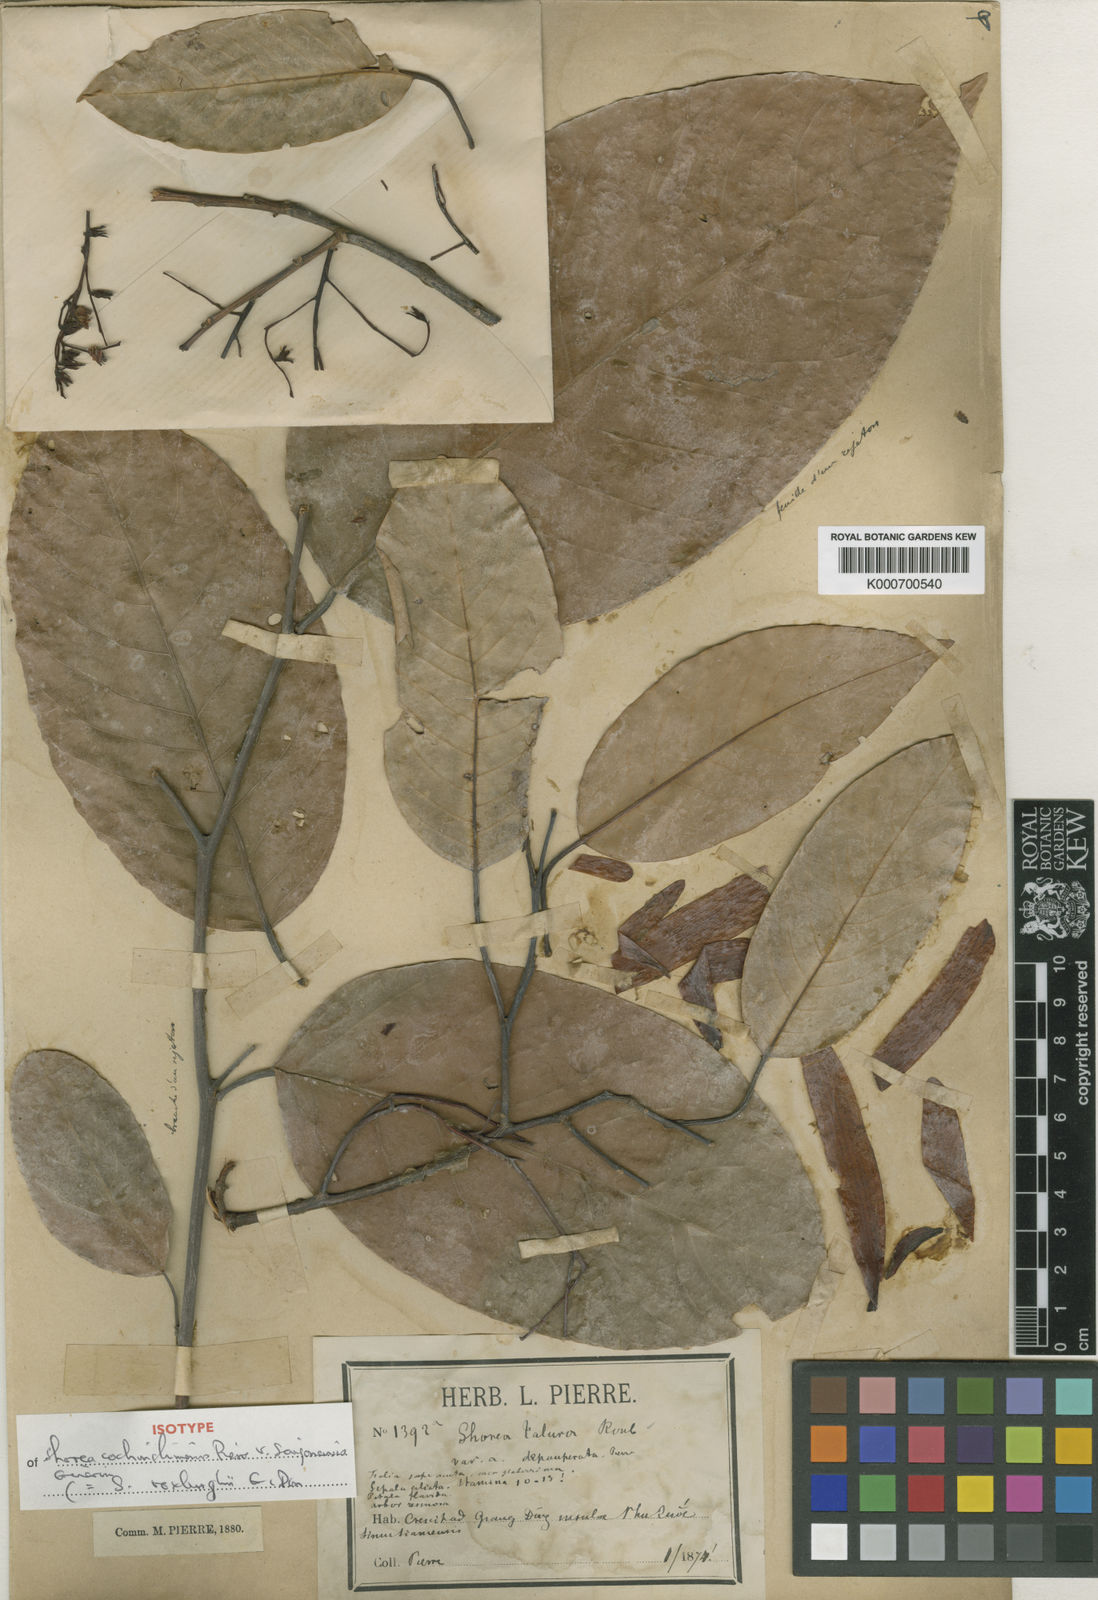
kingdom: Plantae
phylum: Tracheophyta
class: Magnoliopsida
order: Malvales
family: Dipterocarpaceae
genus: Anthoshorea
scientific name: Anthoshorea roxburghii
